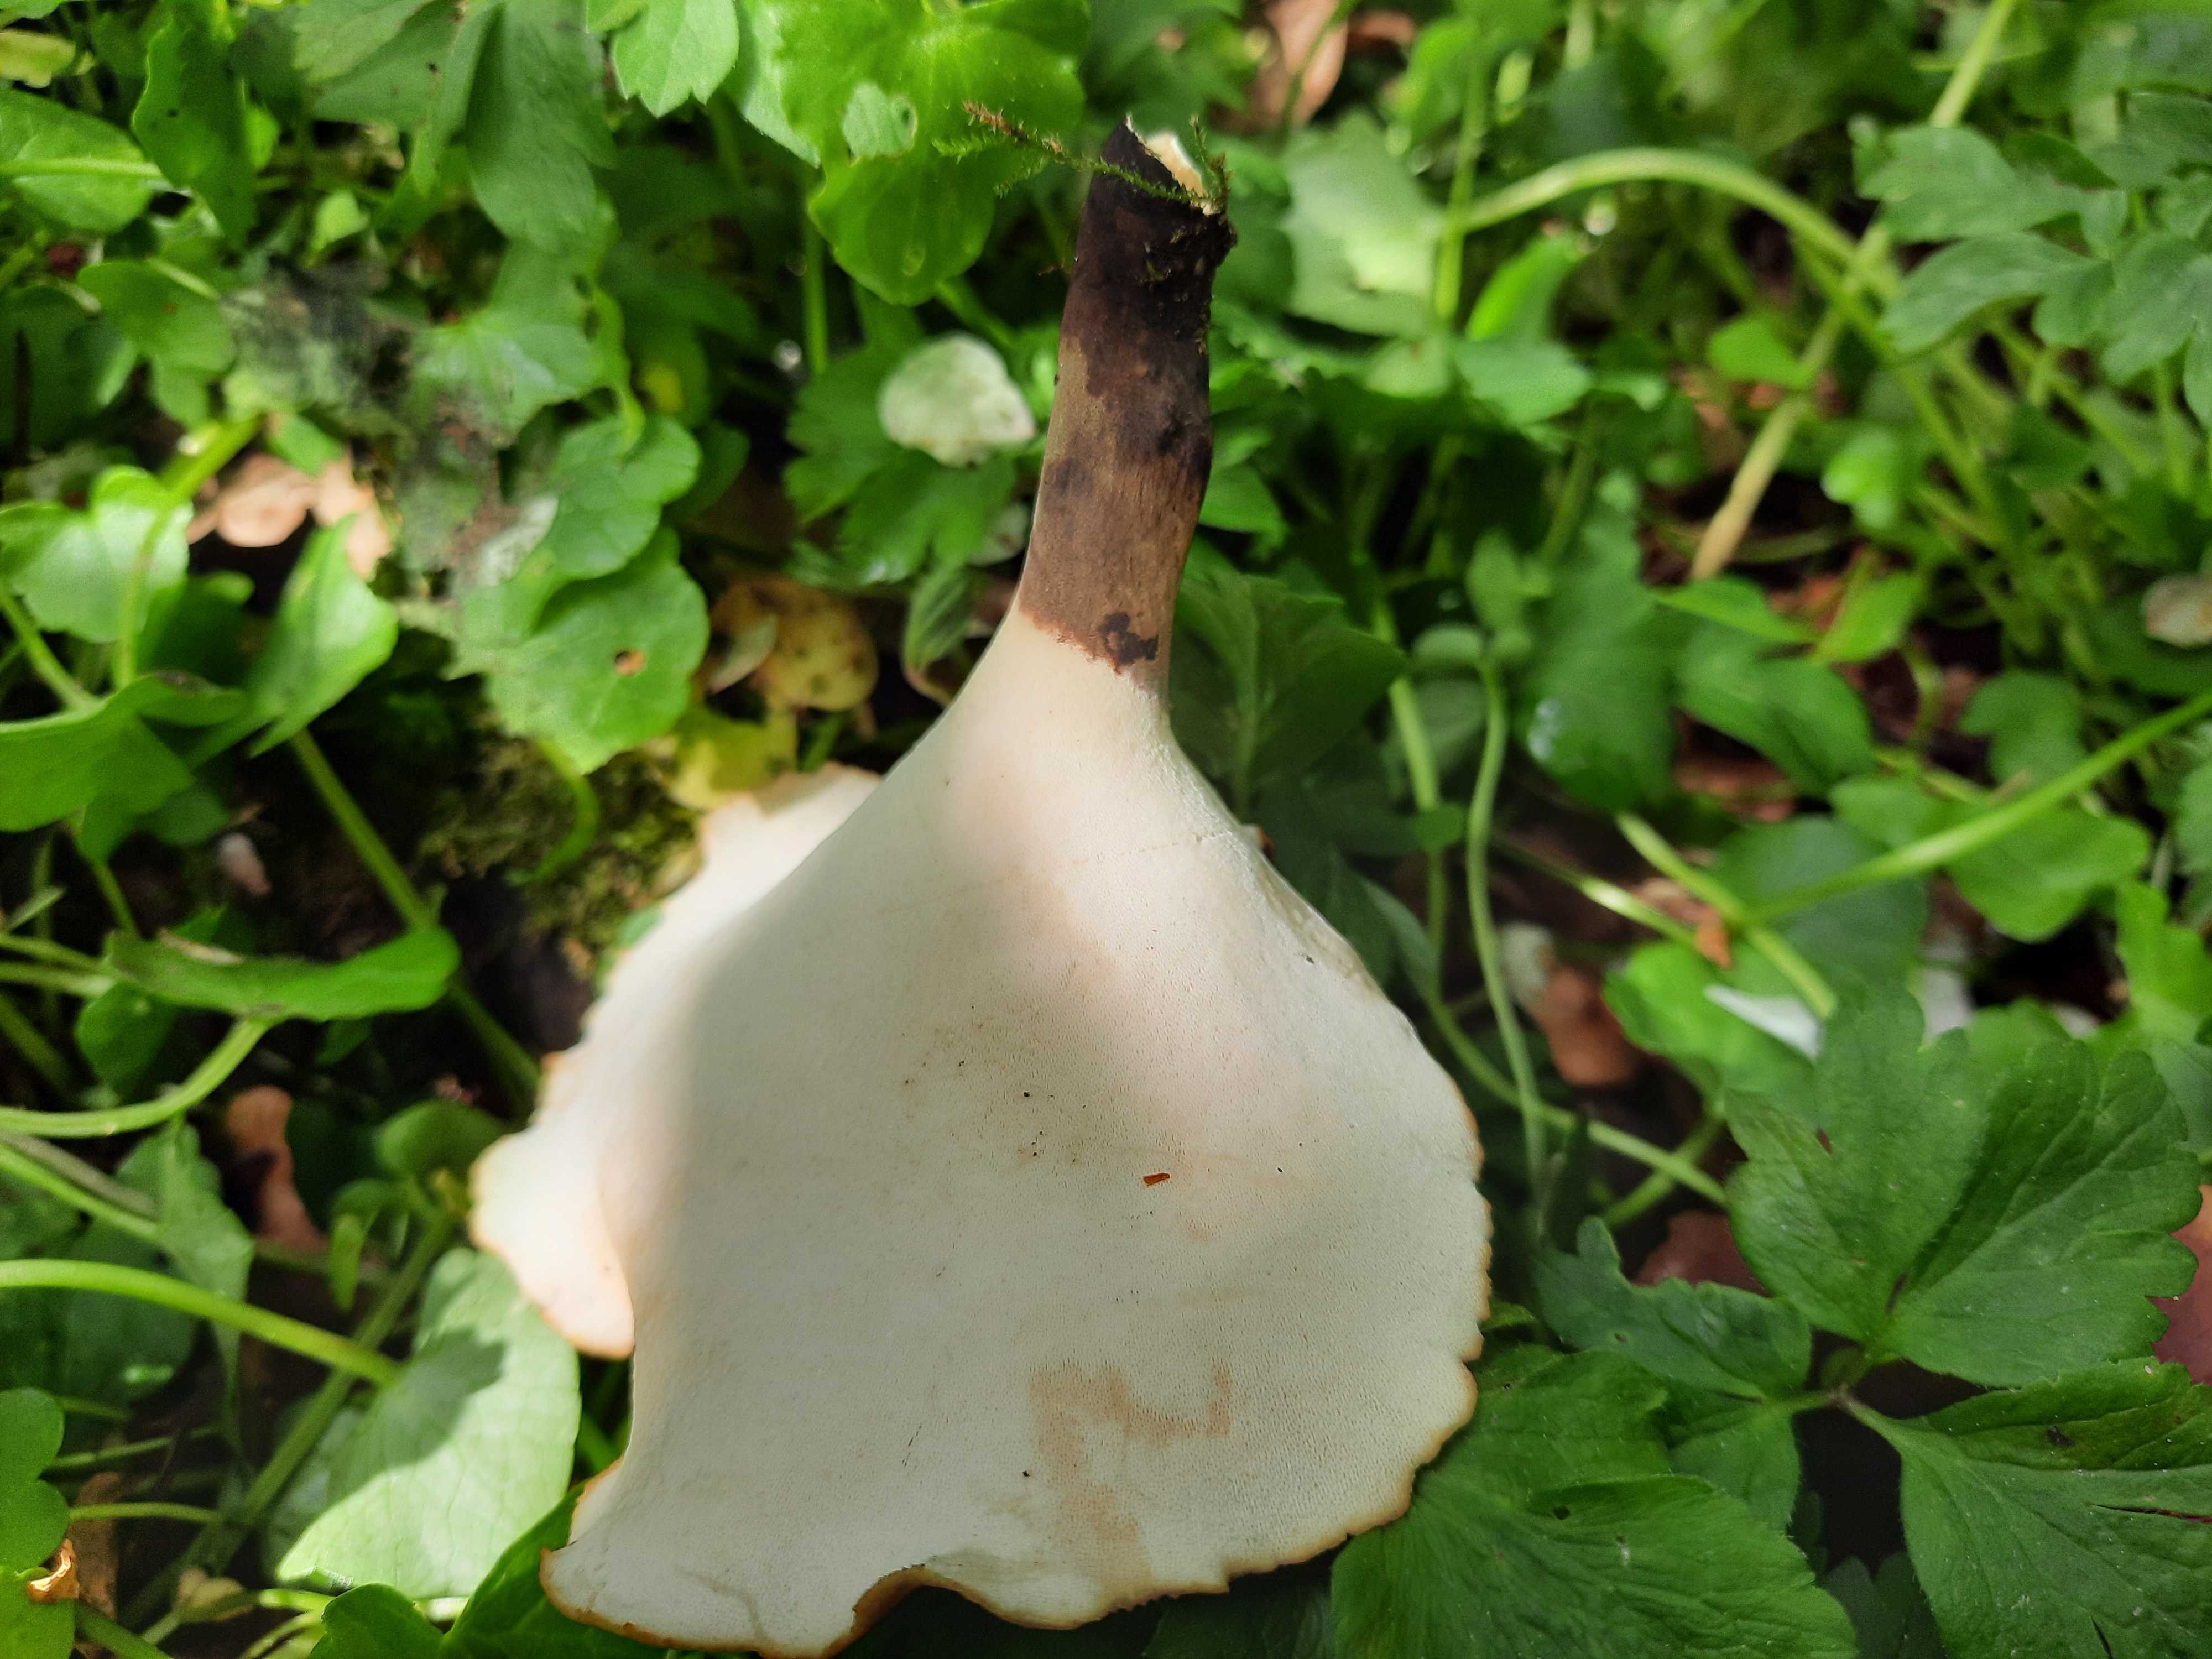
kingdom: Fungi
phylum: Basidiomycota
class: Agaricomycetes
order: Polyporales
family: Polyporaceae
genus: Picipes
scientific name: Picipes badius
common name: kastaniebrun stilkporesvamp
